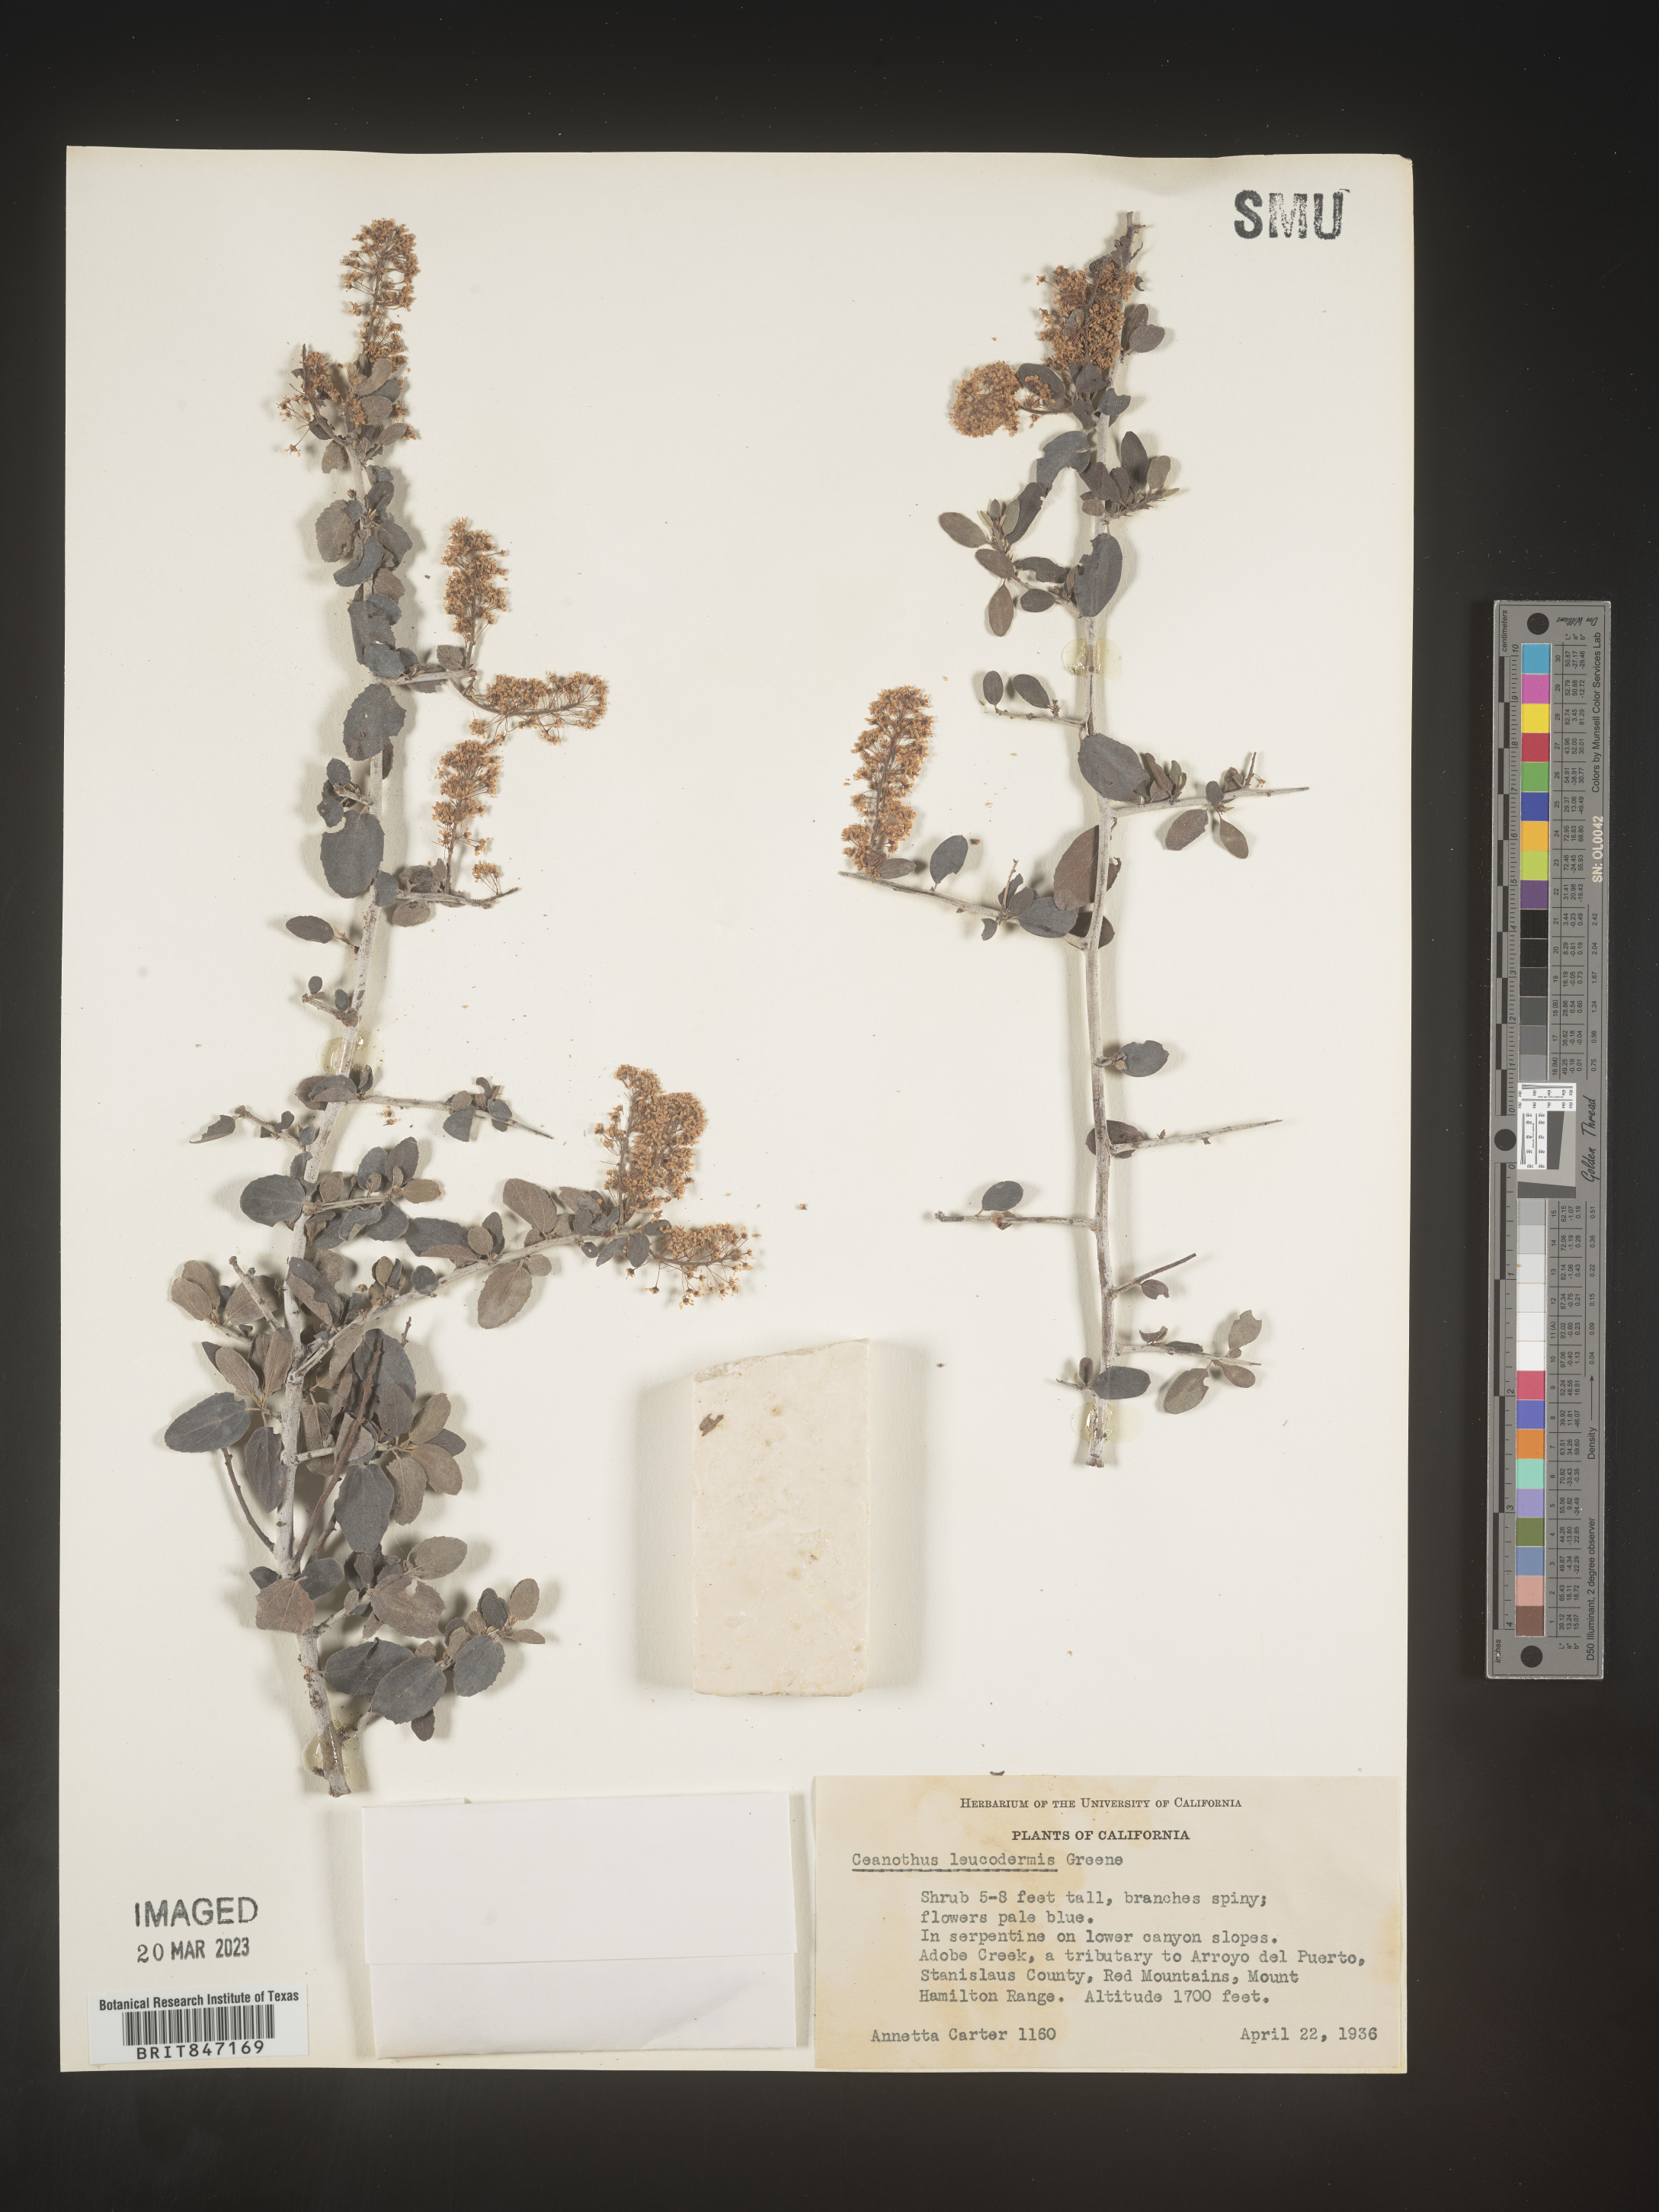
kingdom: Plantae
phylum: Tracheophyta
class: Magnoliopsida
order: Rosales
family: Rhamnaceae
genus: Ceanothus
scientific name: Ceanothus
